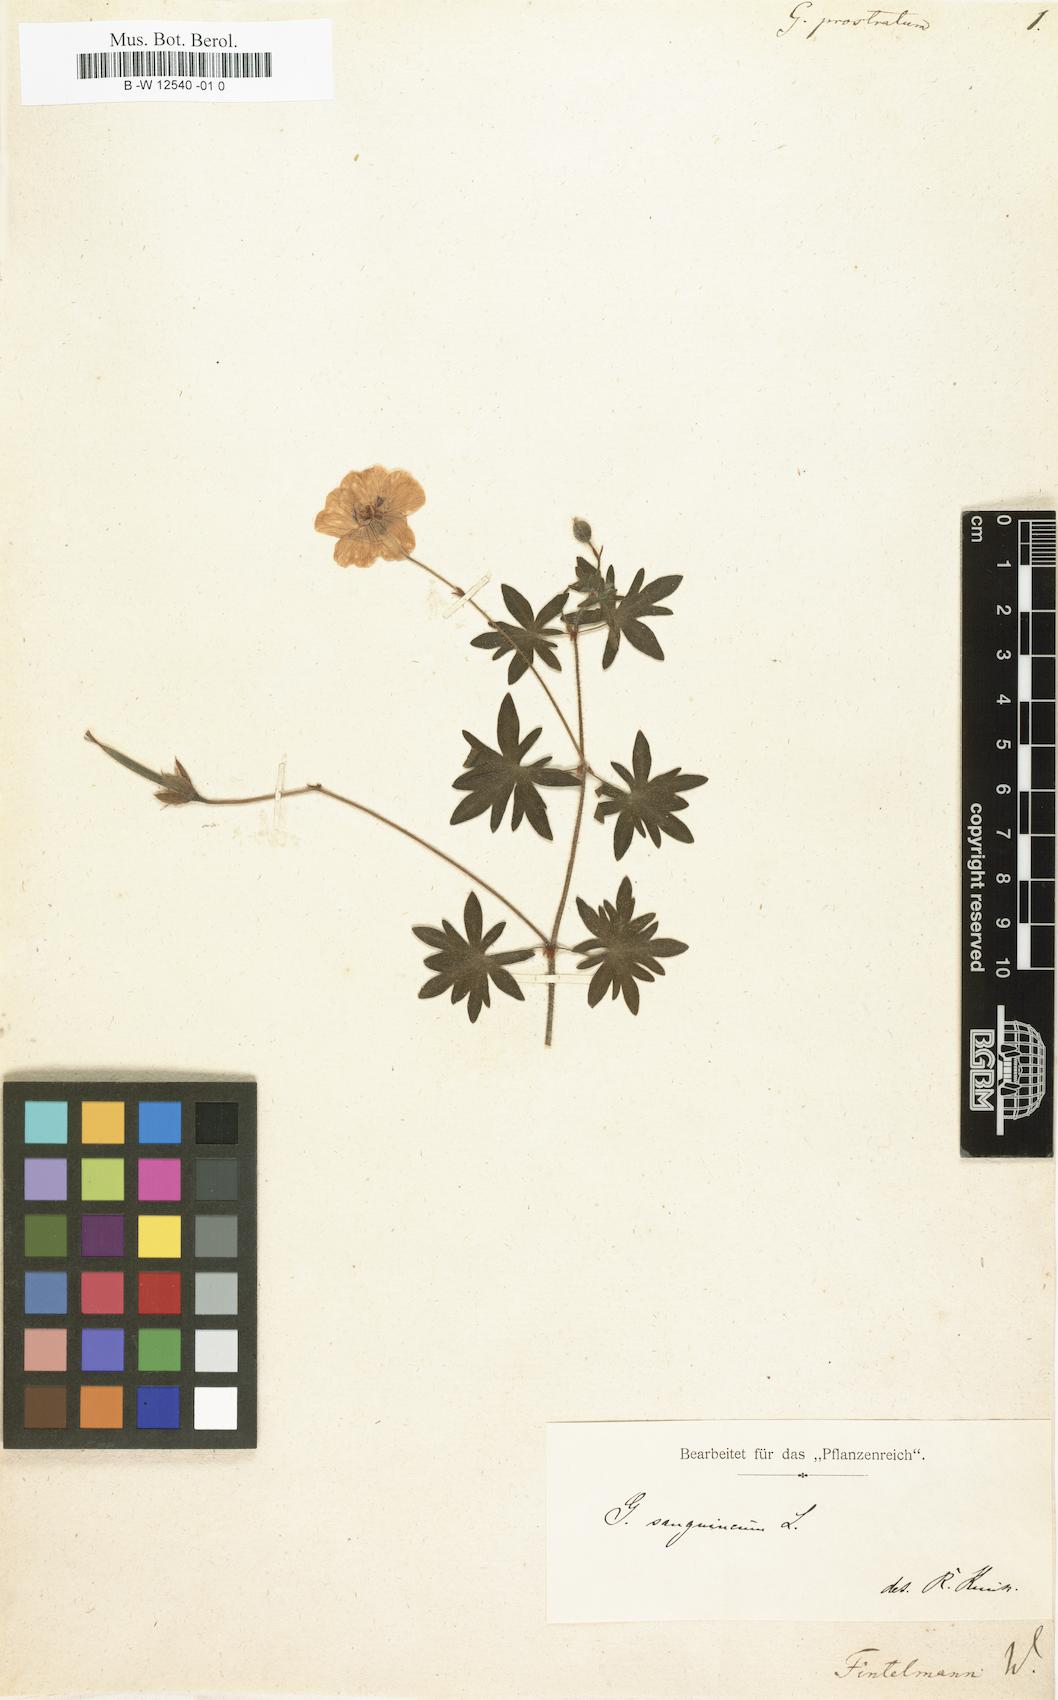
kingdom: Plantae
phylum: Tracheophyta
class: Magnoliopsida
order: Geraniales
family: Geraniaceae
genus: Geranium
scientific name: Geranium sanguineum
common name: Bloody crane's-bill
